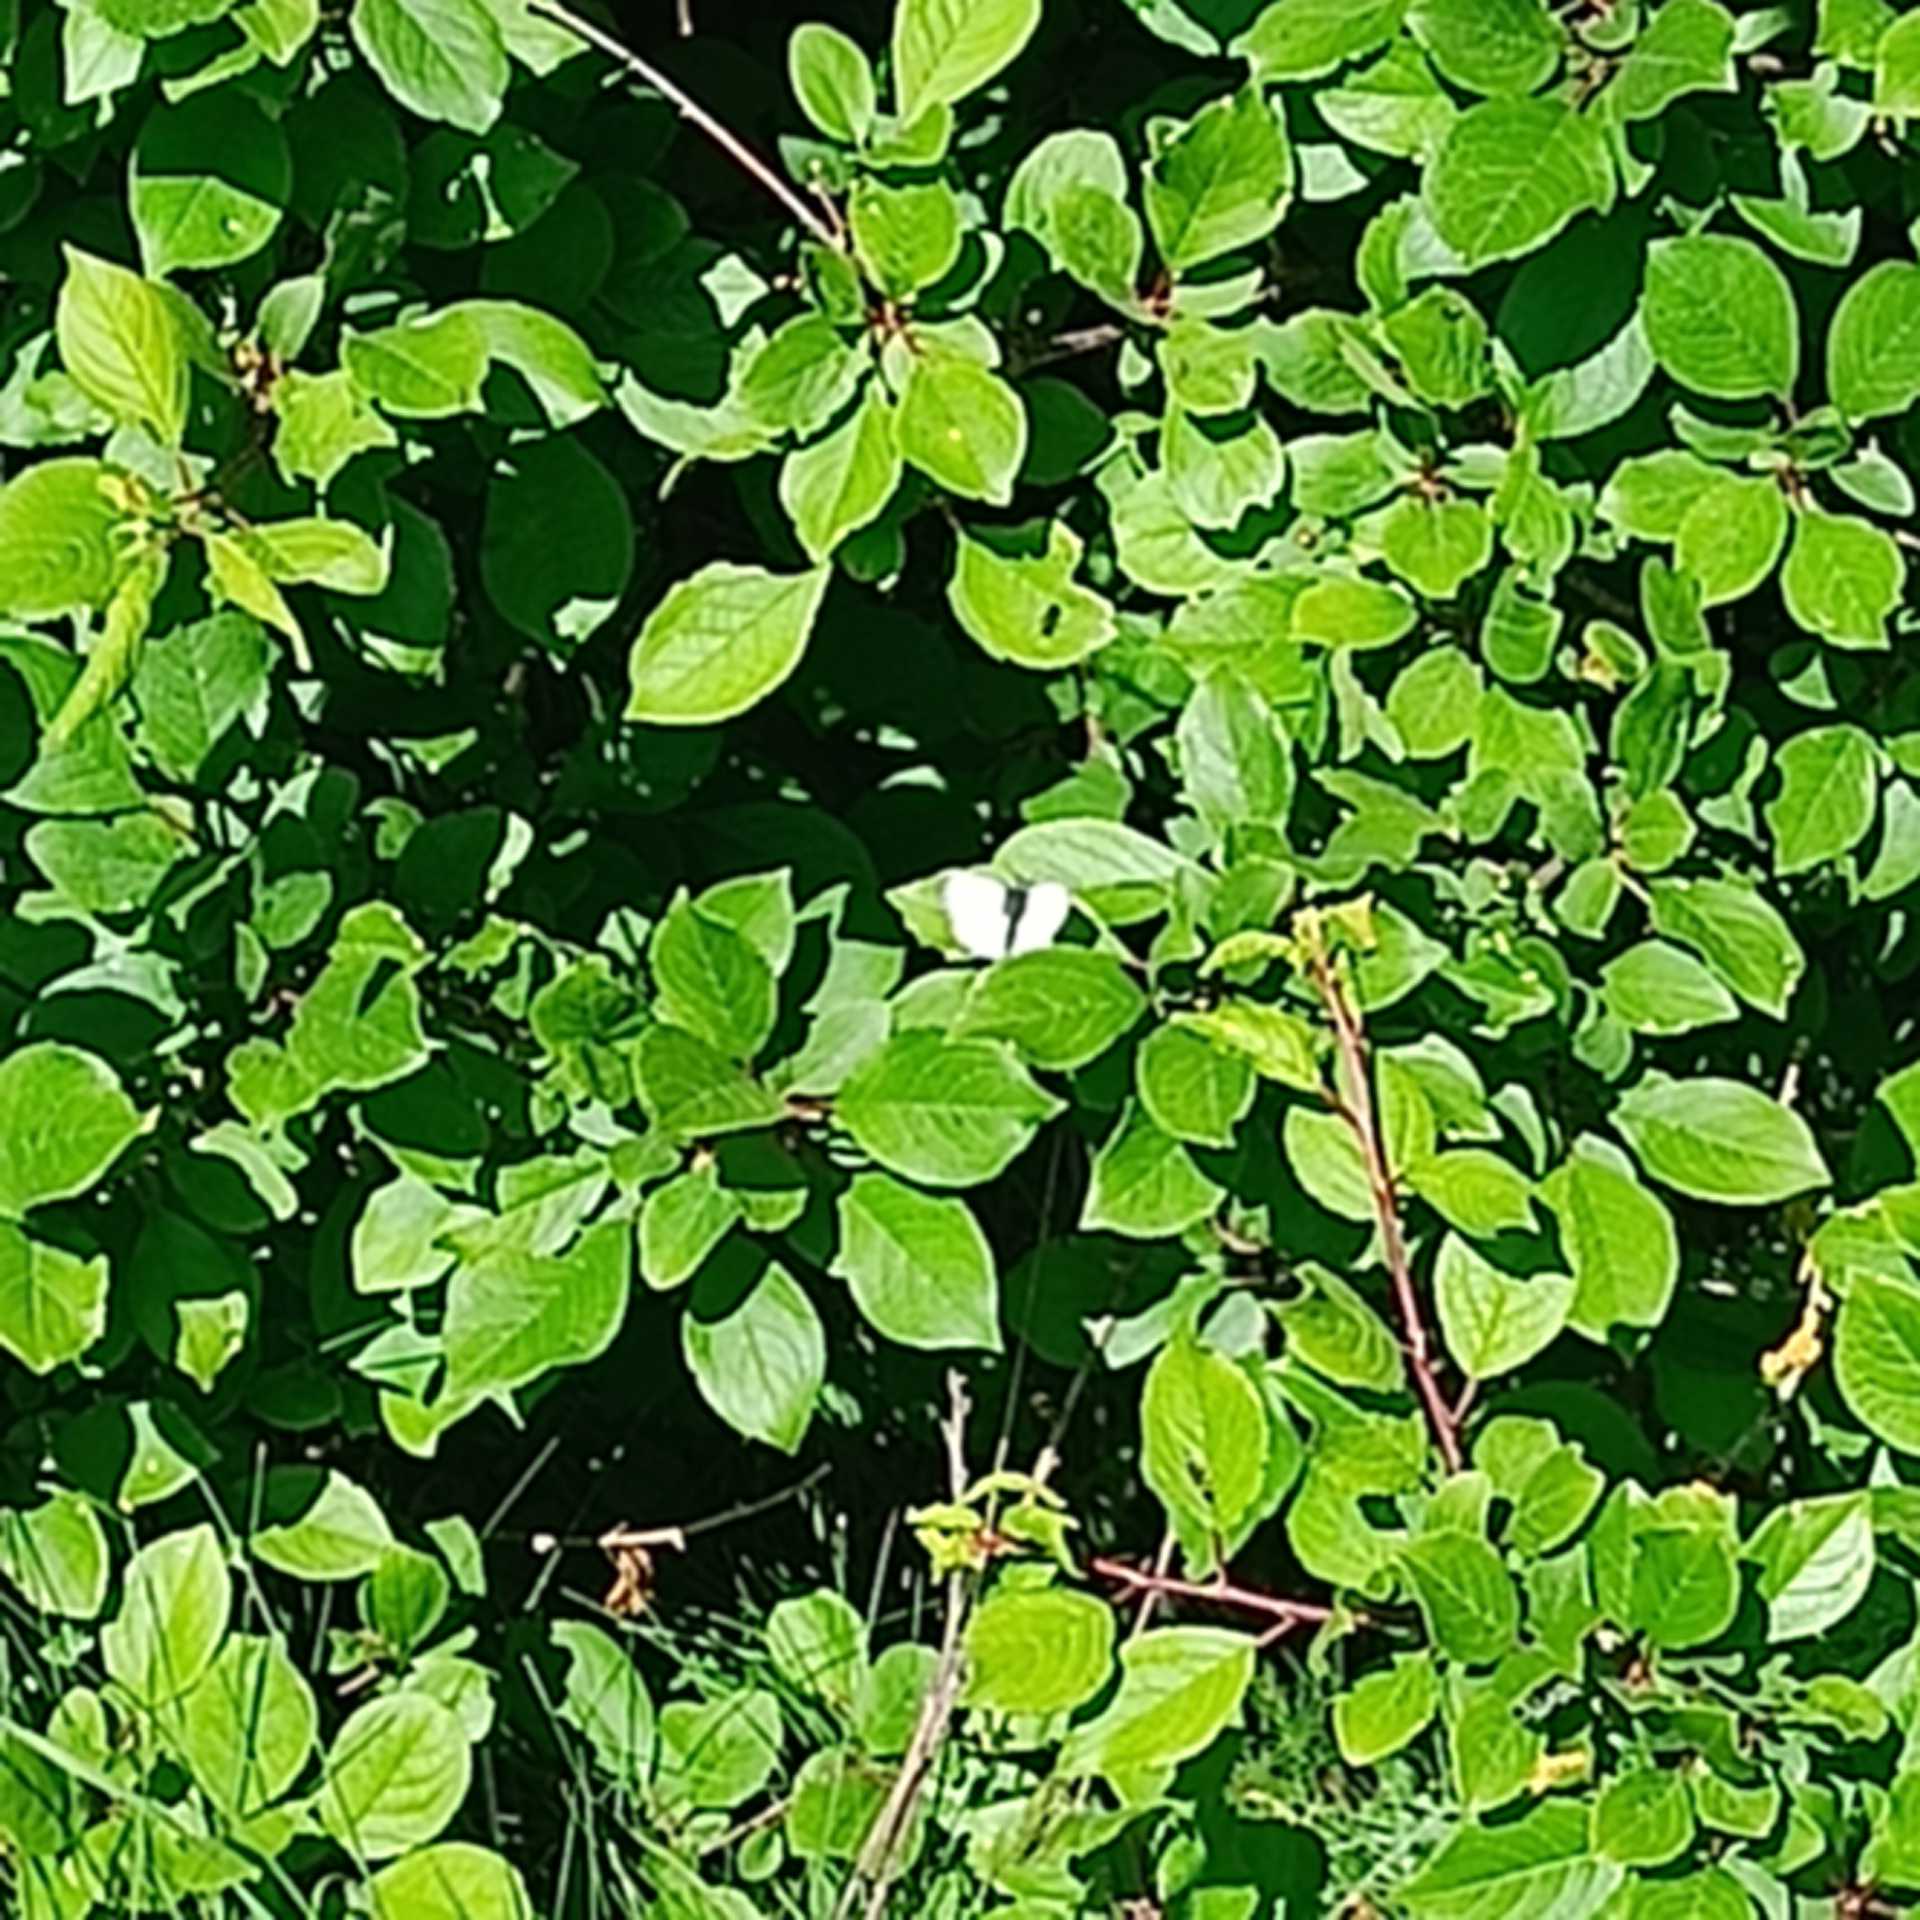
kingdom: Animalia
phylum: Arthropoda
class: Insecta
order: Lepidoptera
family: Pieridae
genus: Pieris
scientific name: Pieris napi
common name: Grønåret kålsommerfugl
